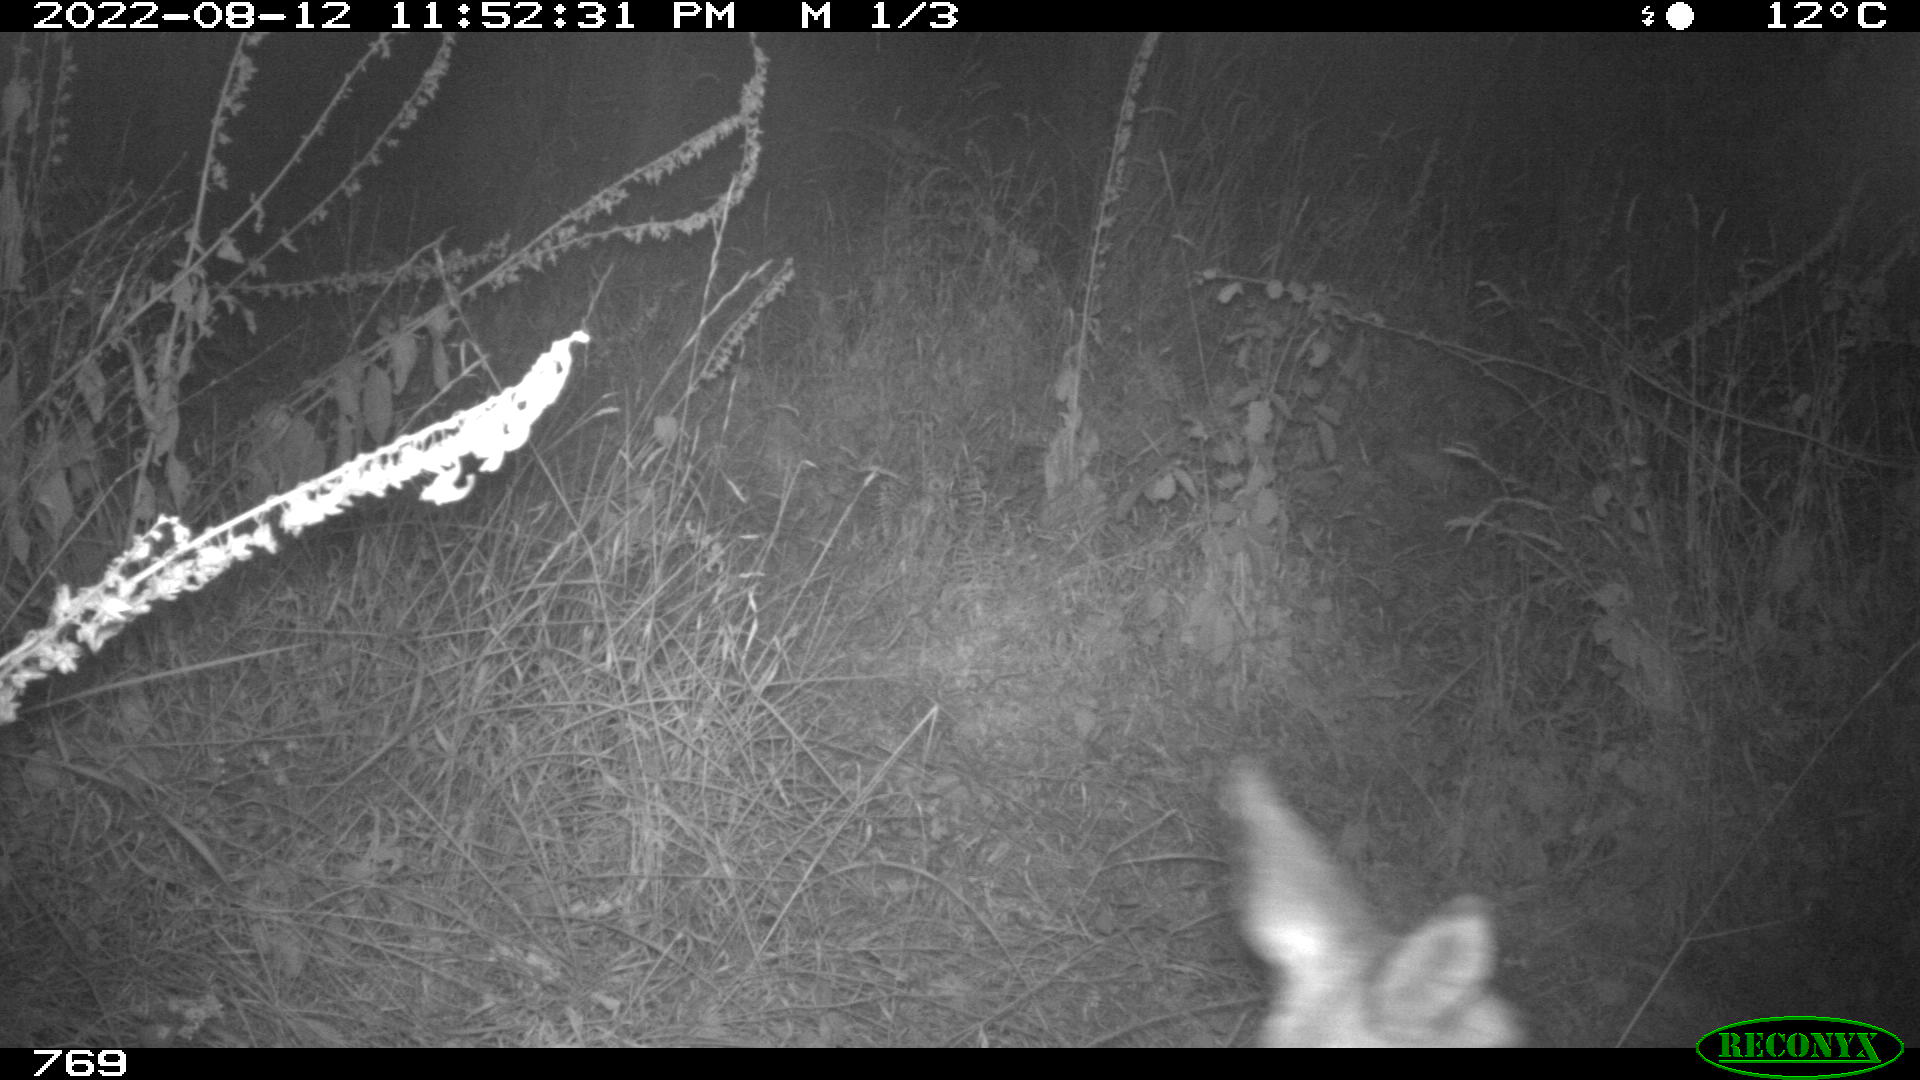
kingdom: Animalia
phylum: Chordata
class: Mammalia
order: Artiodactyla
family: Cervidae
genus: Capreolus
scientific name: Capreolus capreolus
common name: Western roe deer
